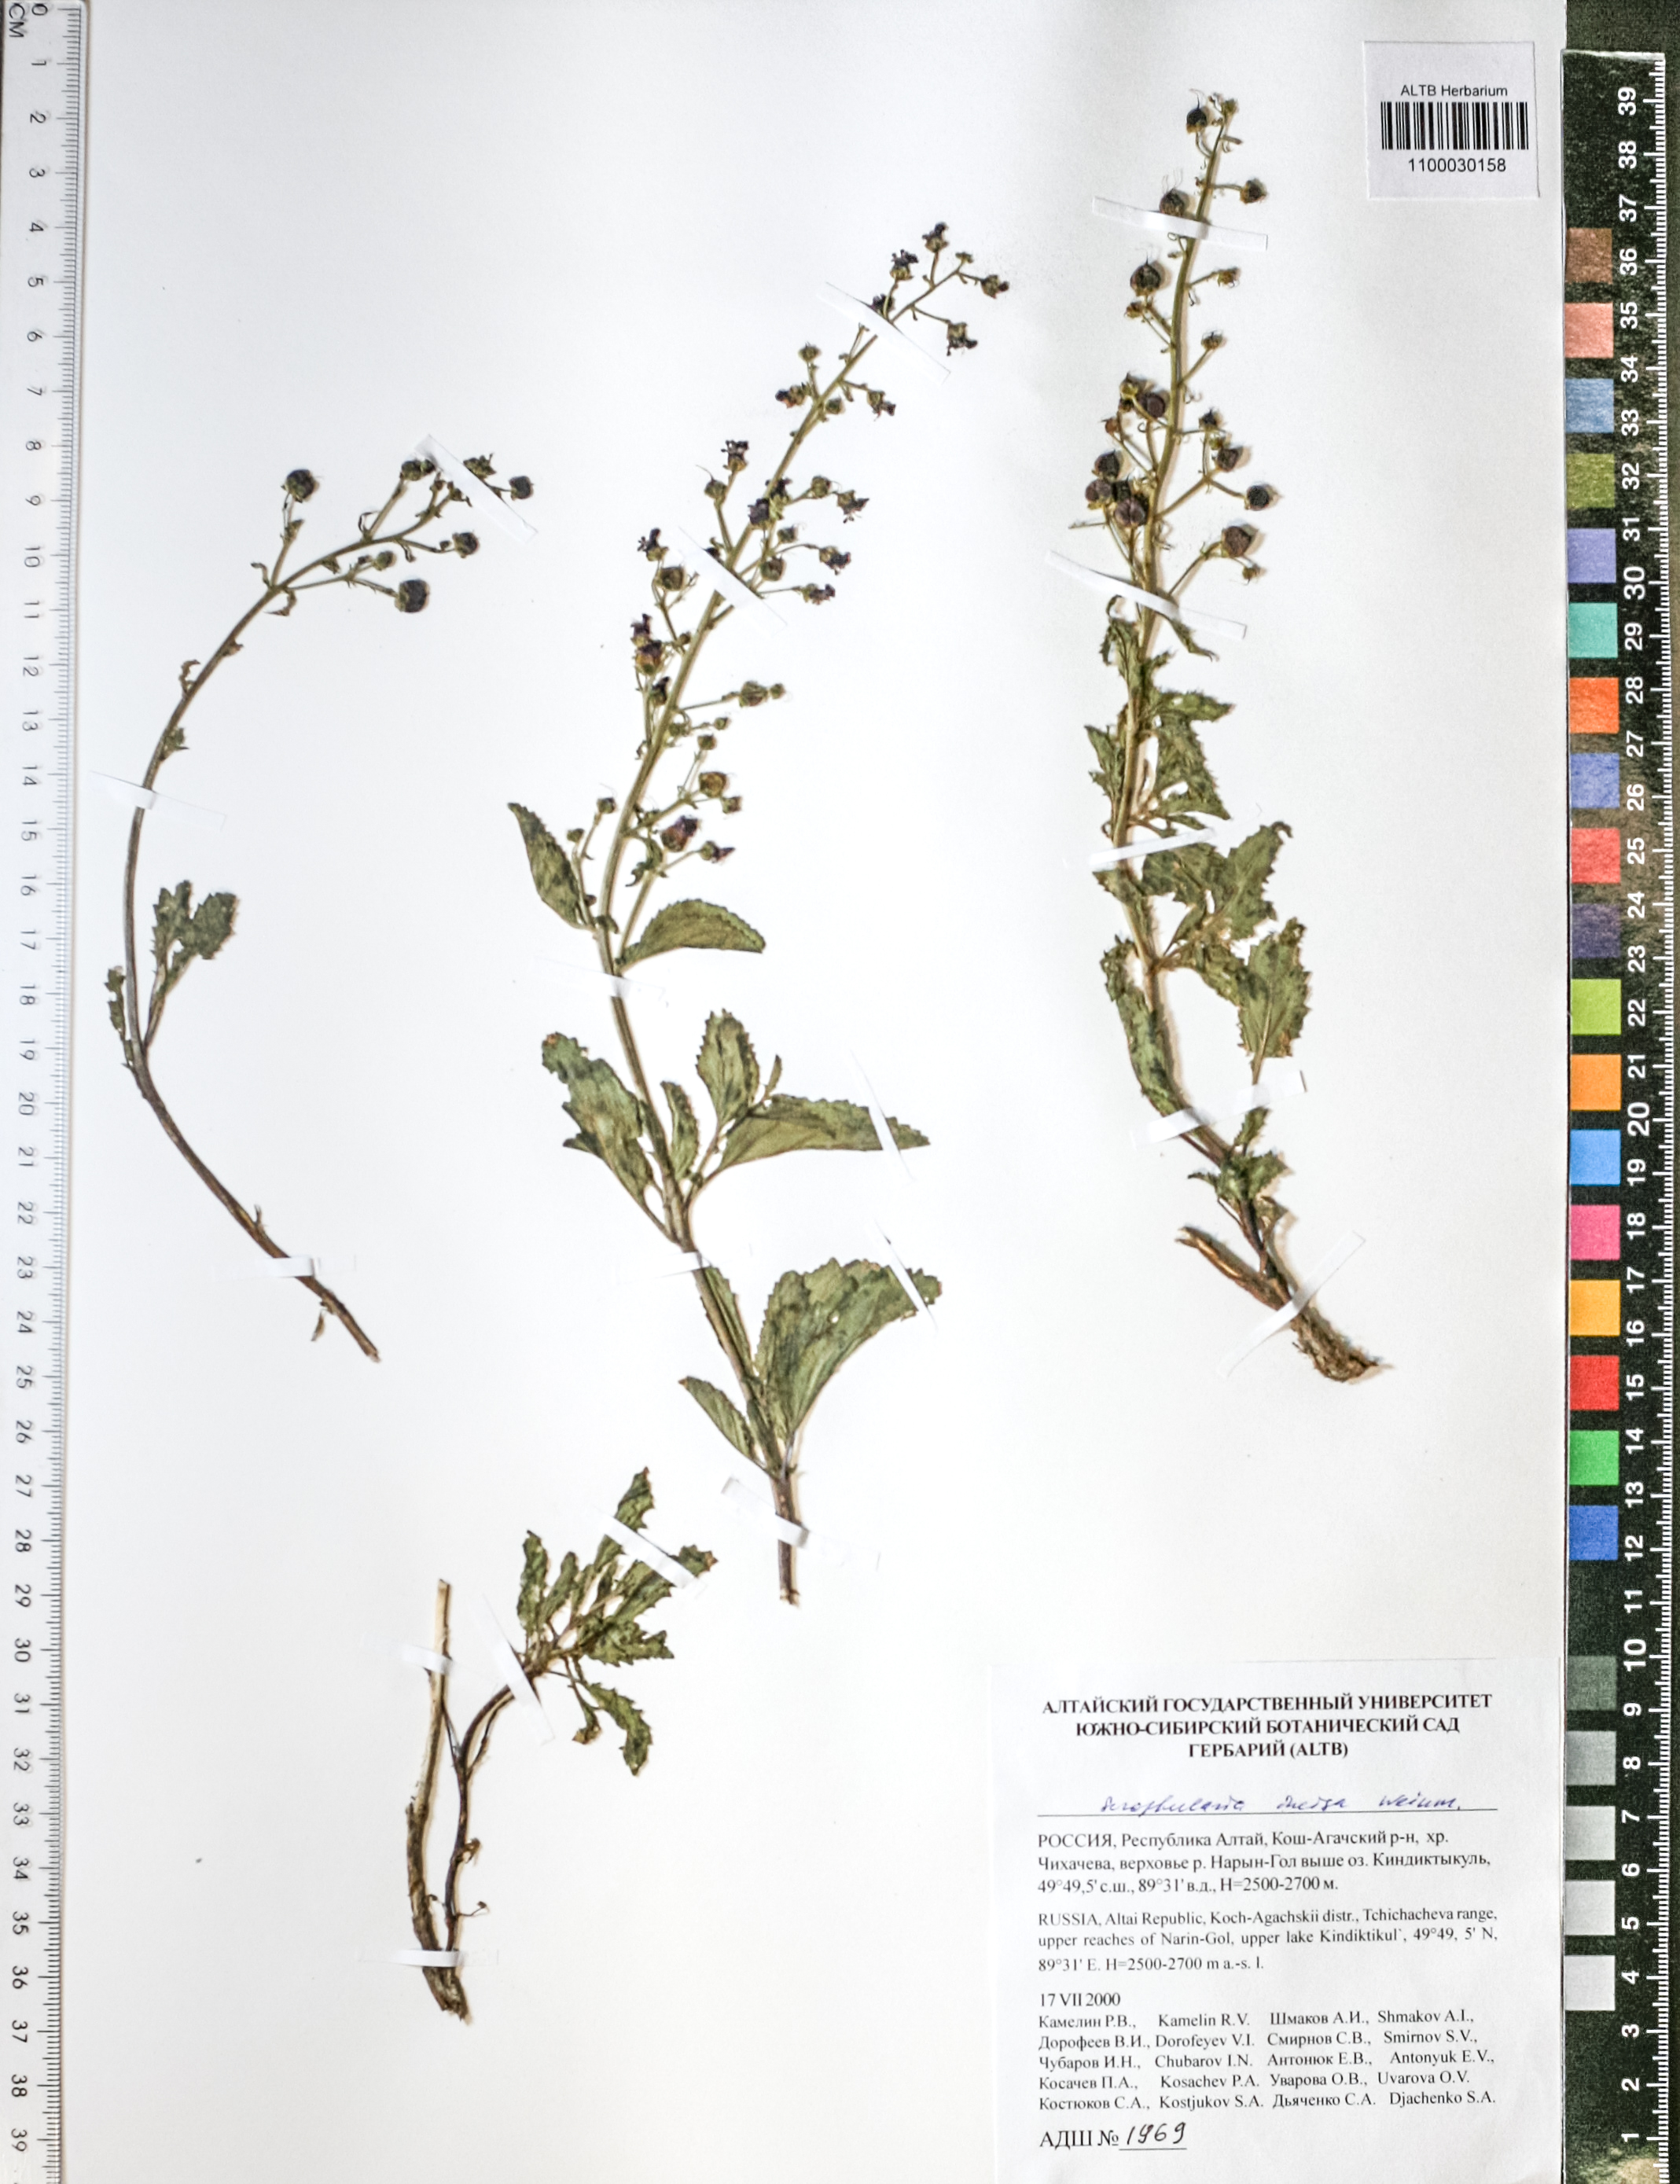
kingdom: Plantae
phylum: Tracheophyta
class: Magnoliopsida
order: Lamiales
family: Scrophulariaceae
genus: Scrophularia
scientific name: Scrophularia incisa
